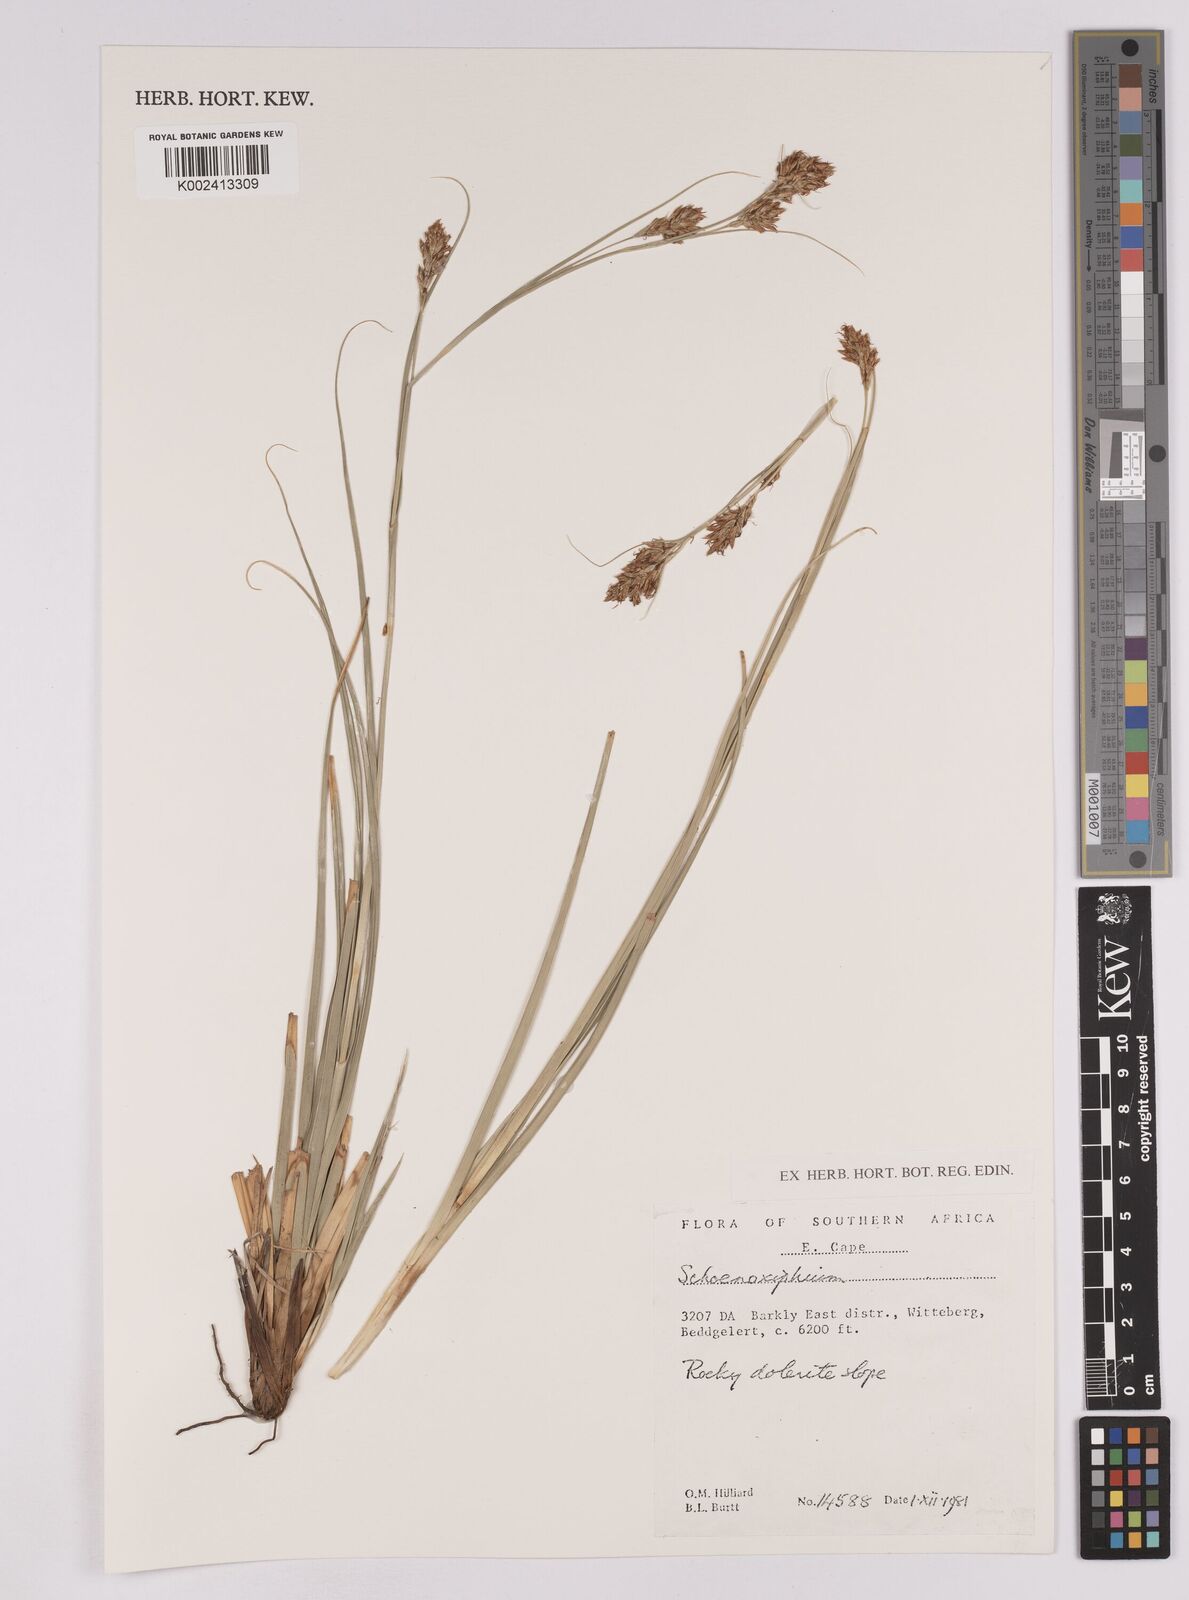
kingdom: Plantae
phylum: Tracheophyta
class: Liliopsida
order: Poales
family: Cyperaceae
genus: Carex
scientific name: Carex
